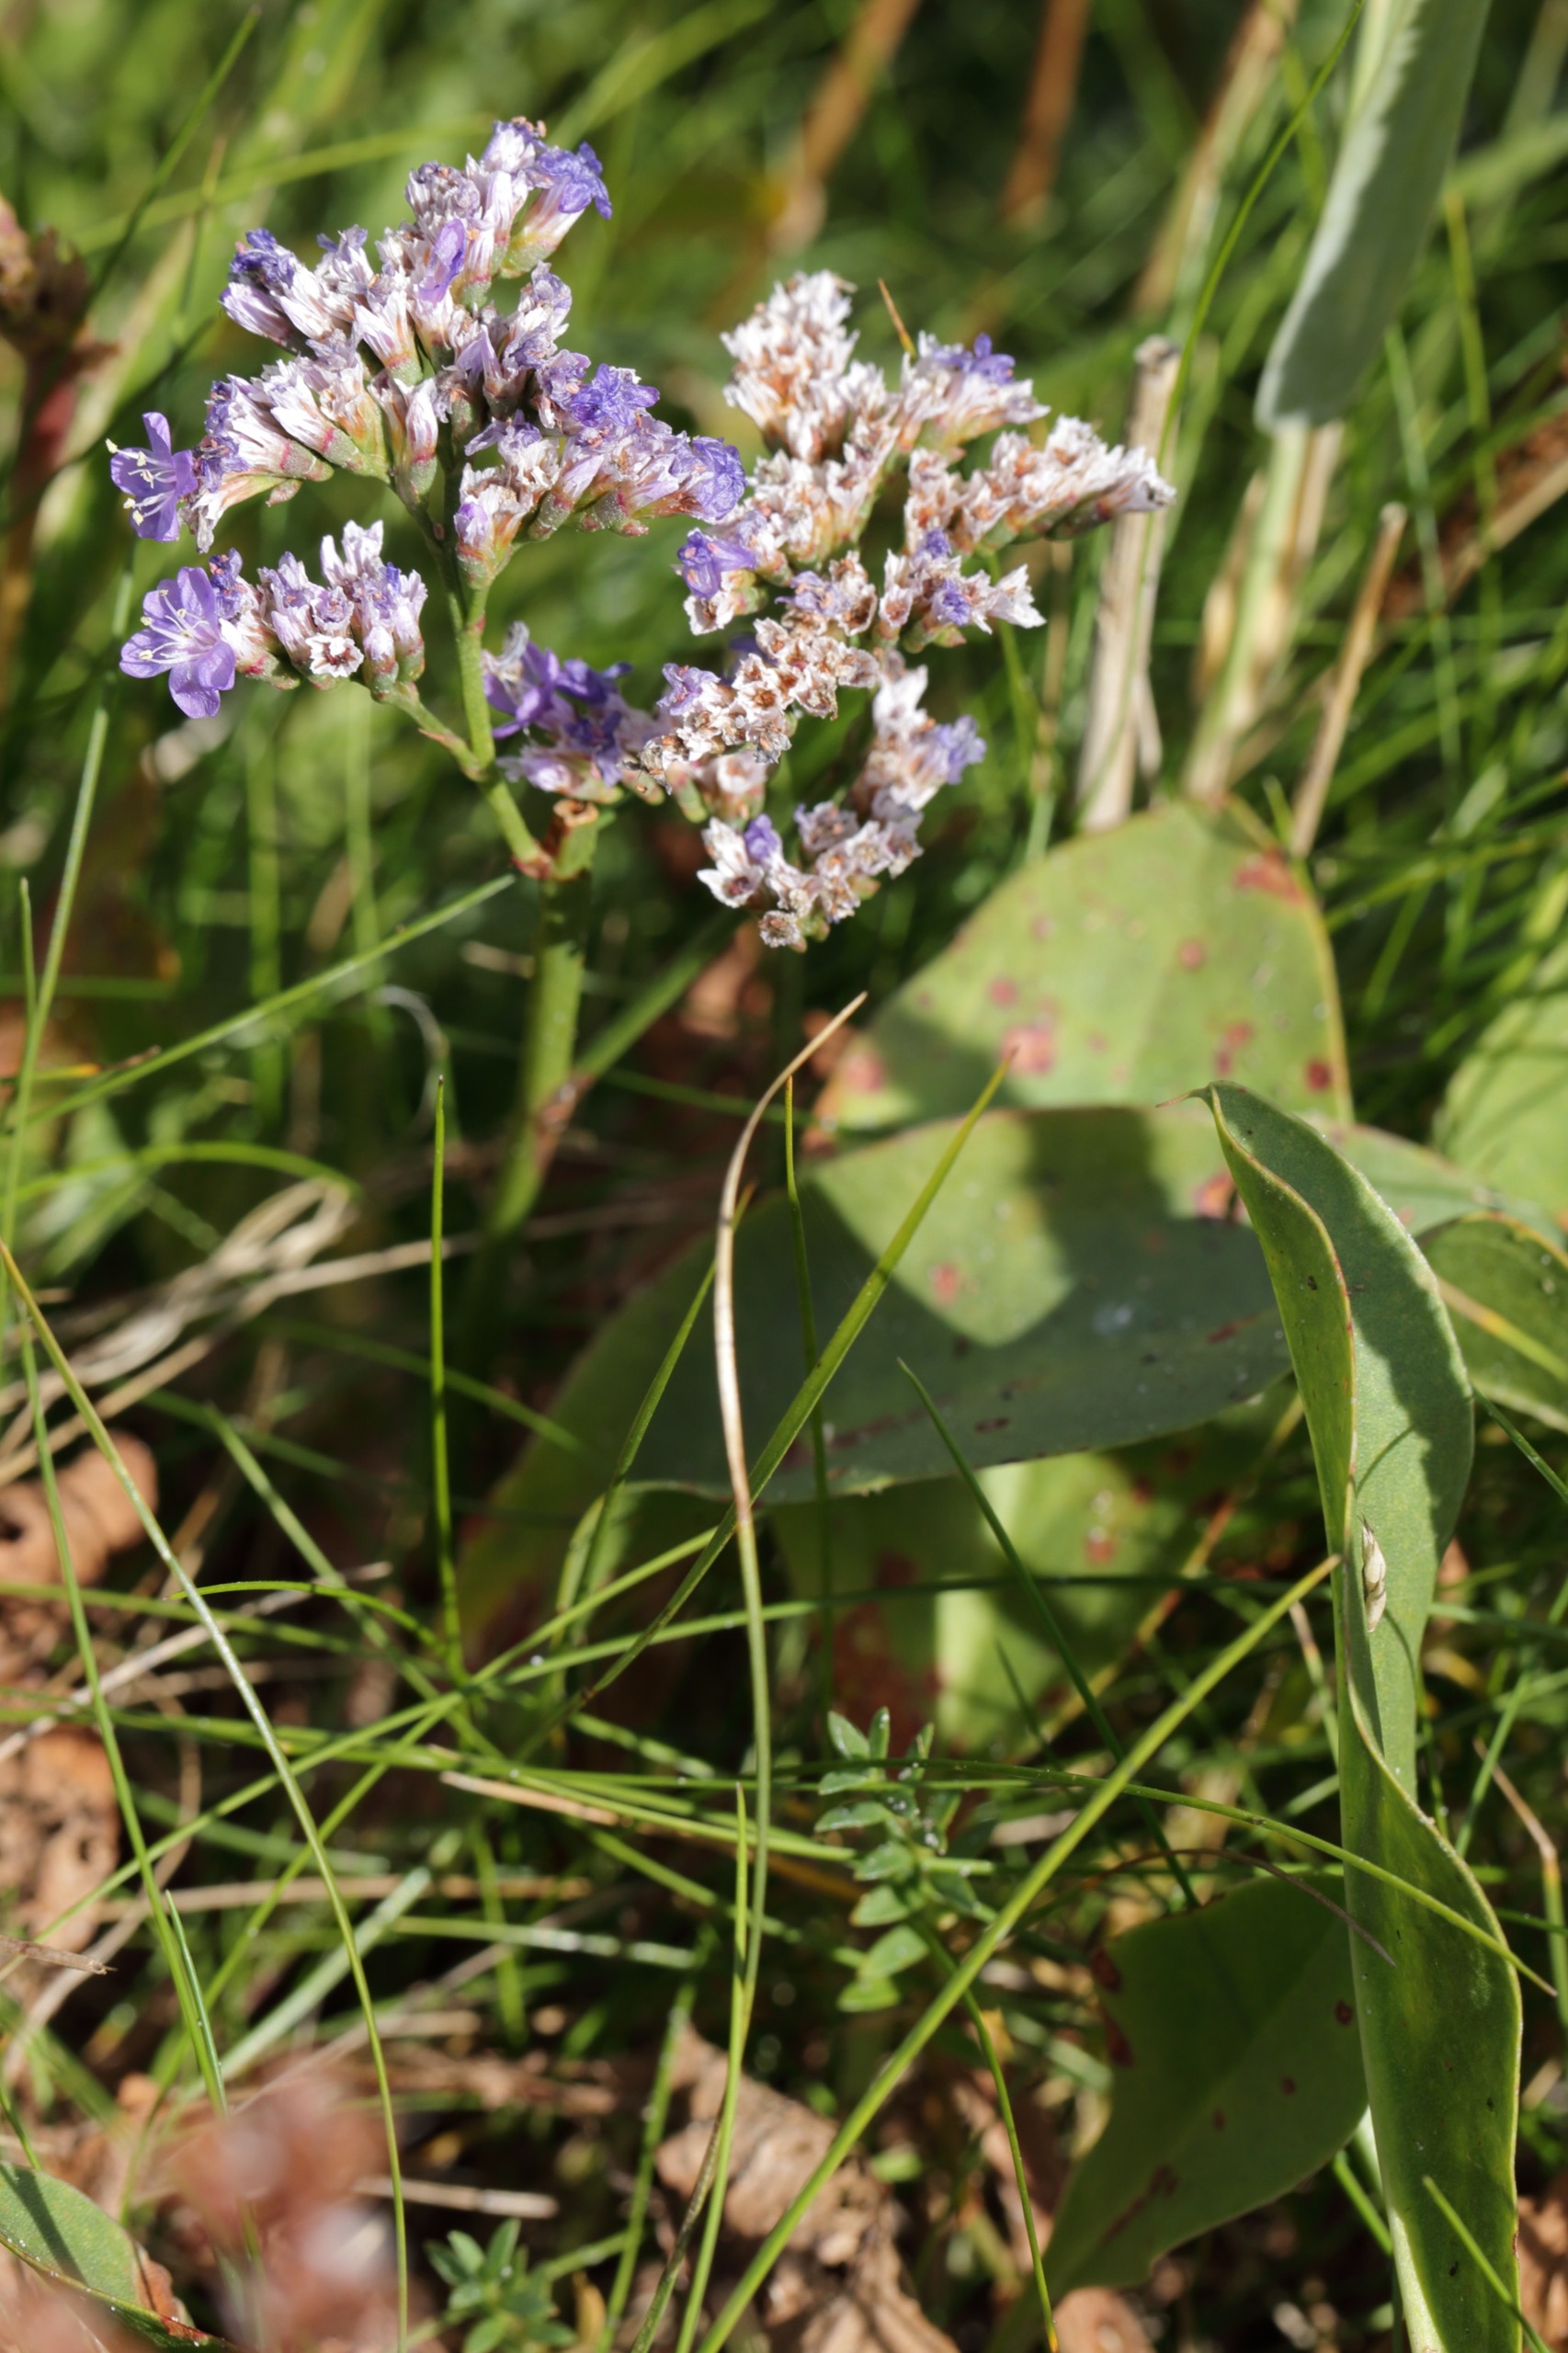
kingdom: Plantae
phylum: Tracheophyta
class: Magnoliopsida
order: Caryophyllales
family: Plumbaginaceae
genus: Limonium
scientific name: Limonium vulgare
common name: Tætblomstret hindebæger
